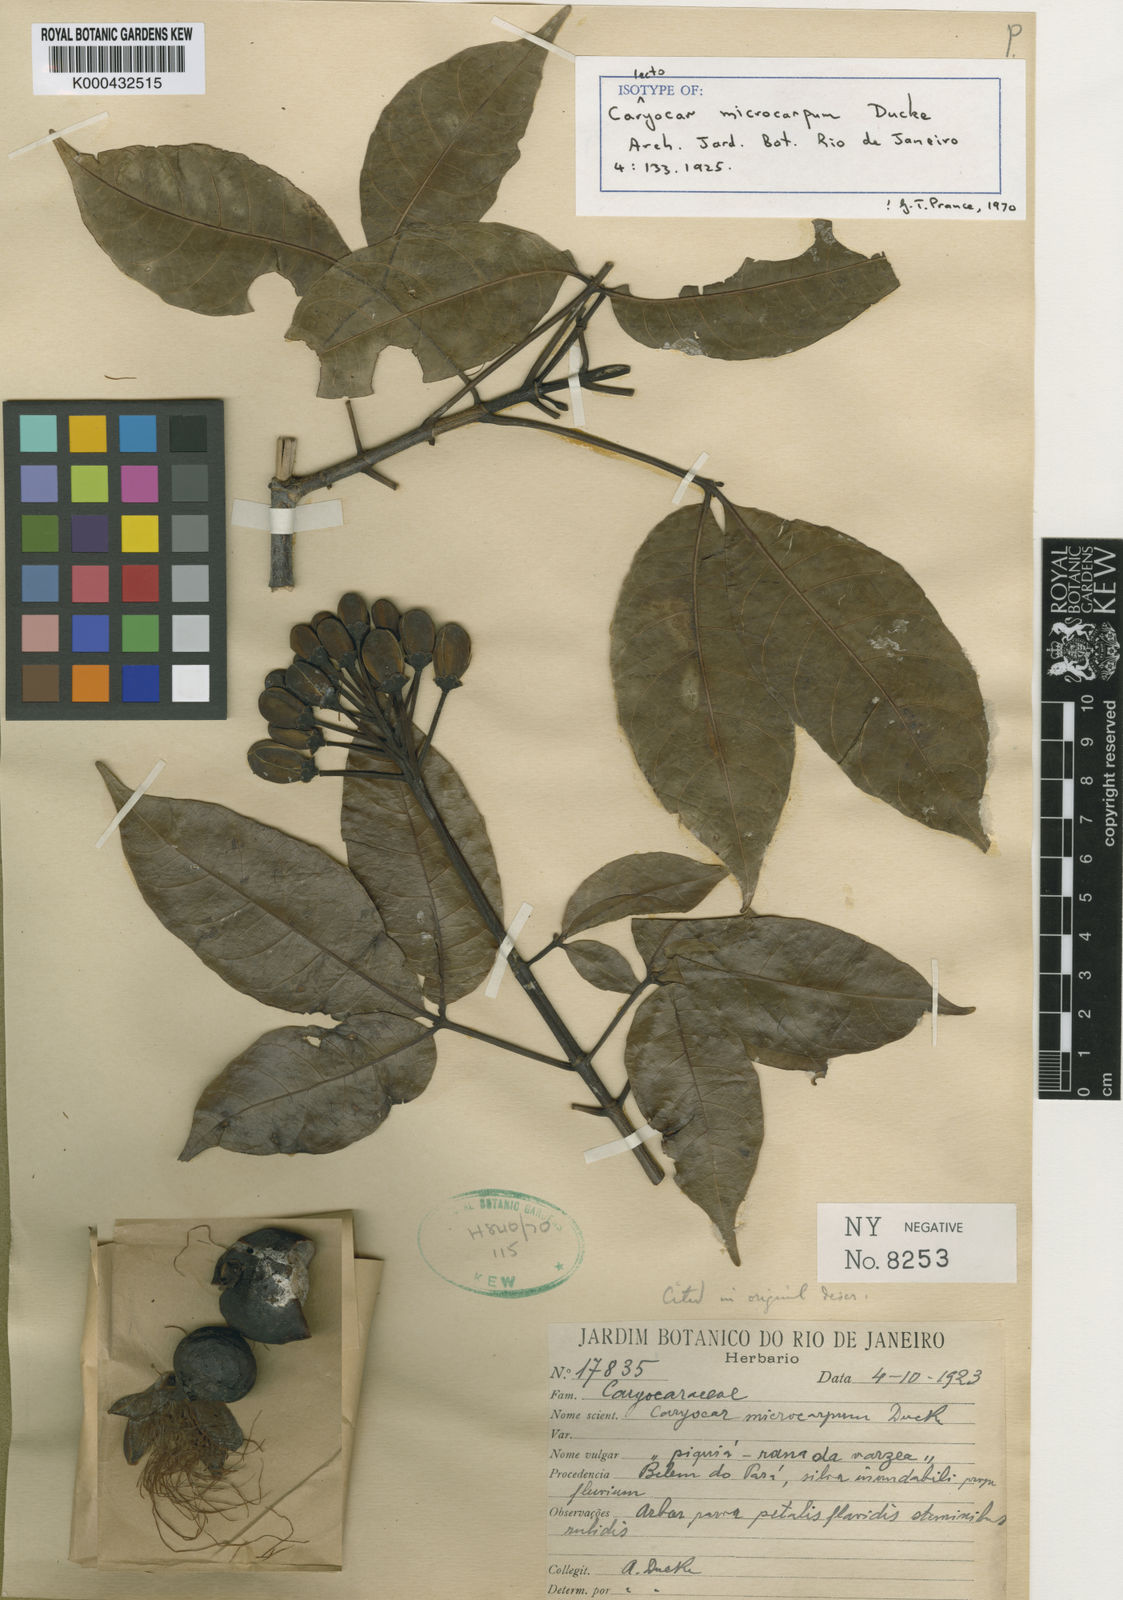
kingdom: Plantae
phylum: Tracheophyta
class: Magnoliopsida
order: Malpighiales
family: Caryocaraceae
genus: Caryocar
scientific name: Caryocar microcarpum
